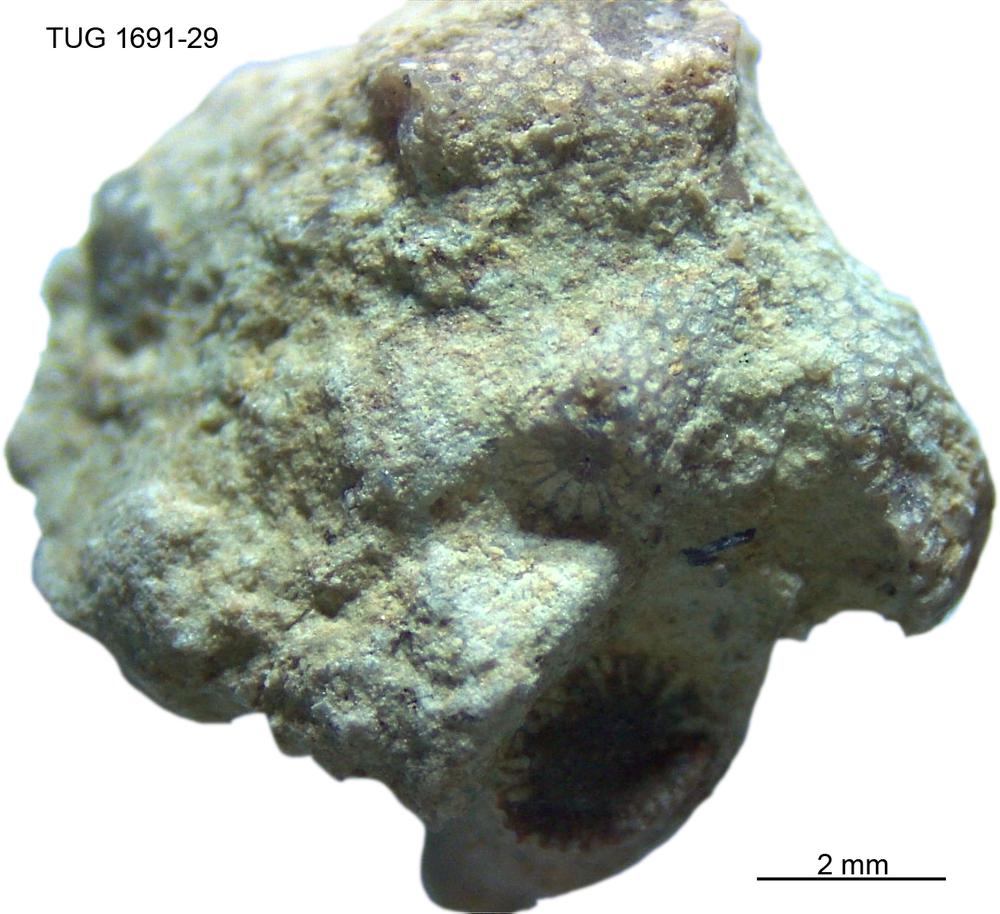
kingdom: Animalia
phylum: Bryozoa
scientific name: Bryozoa
